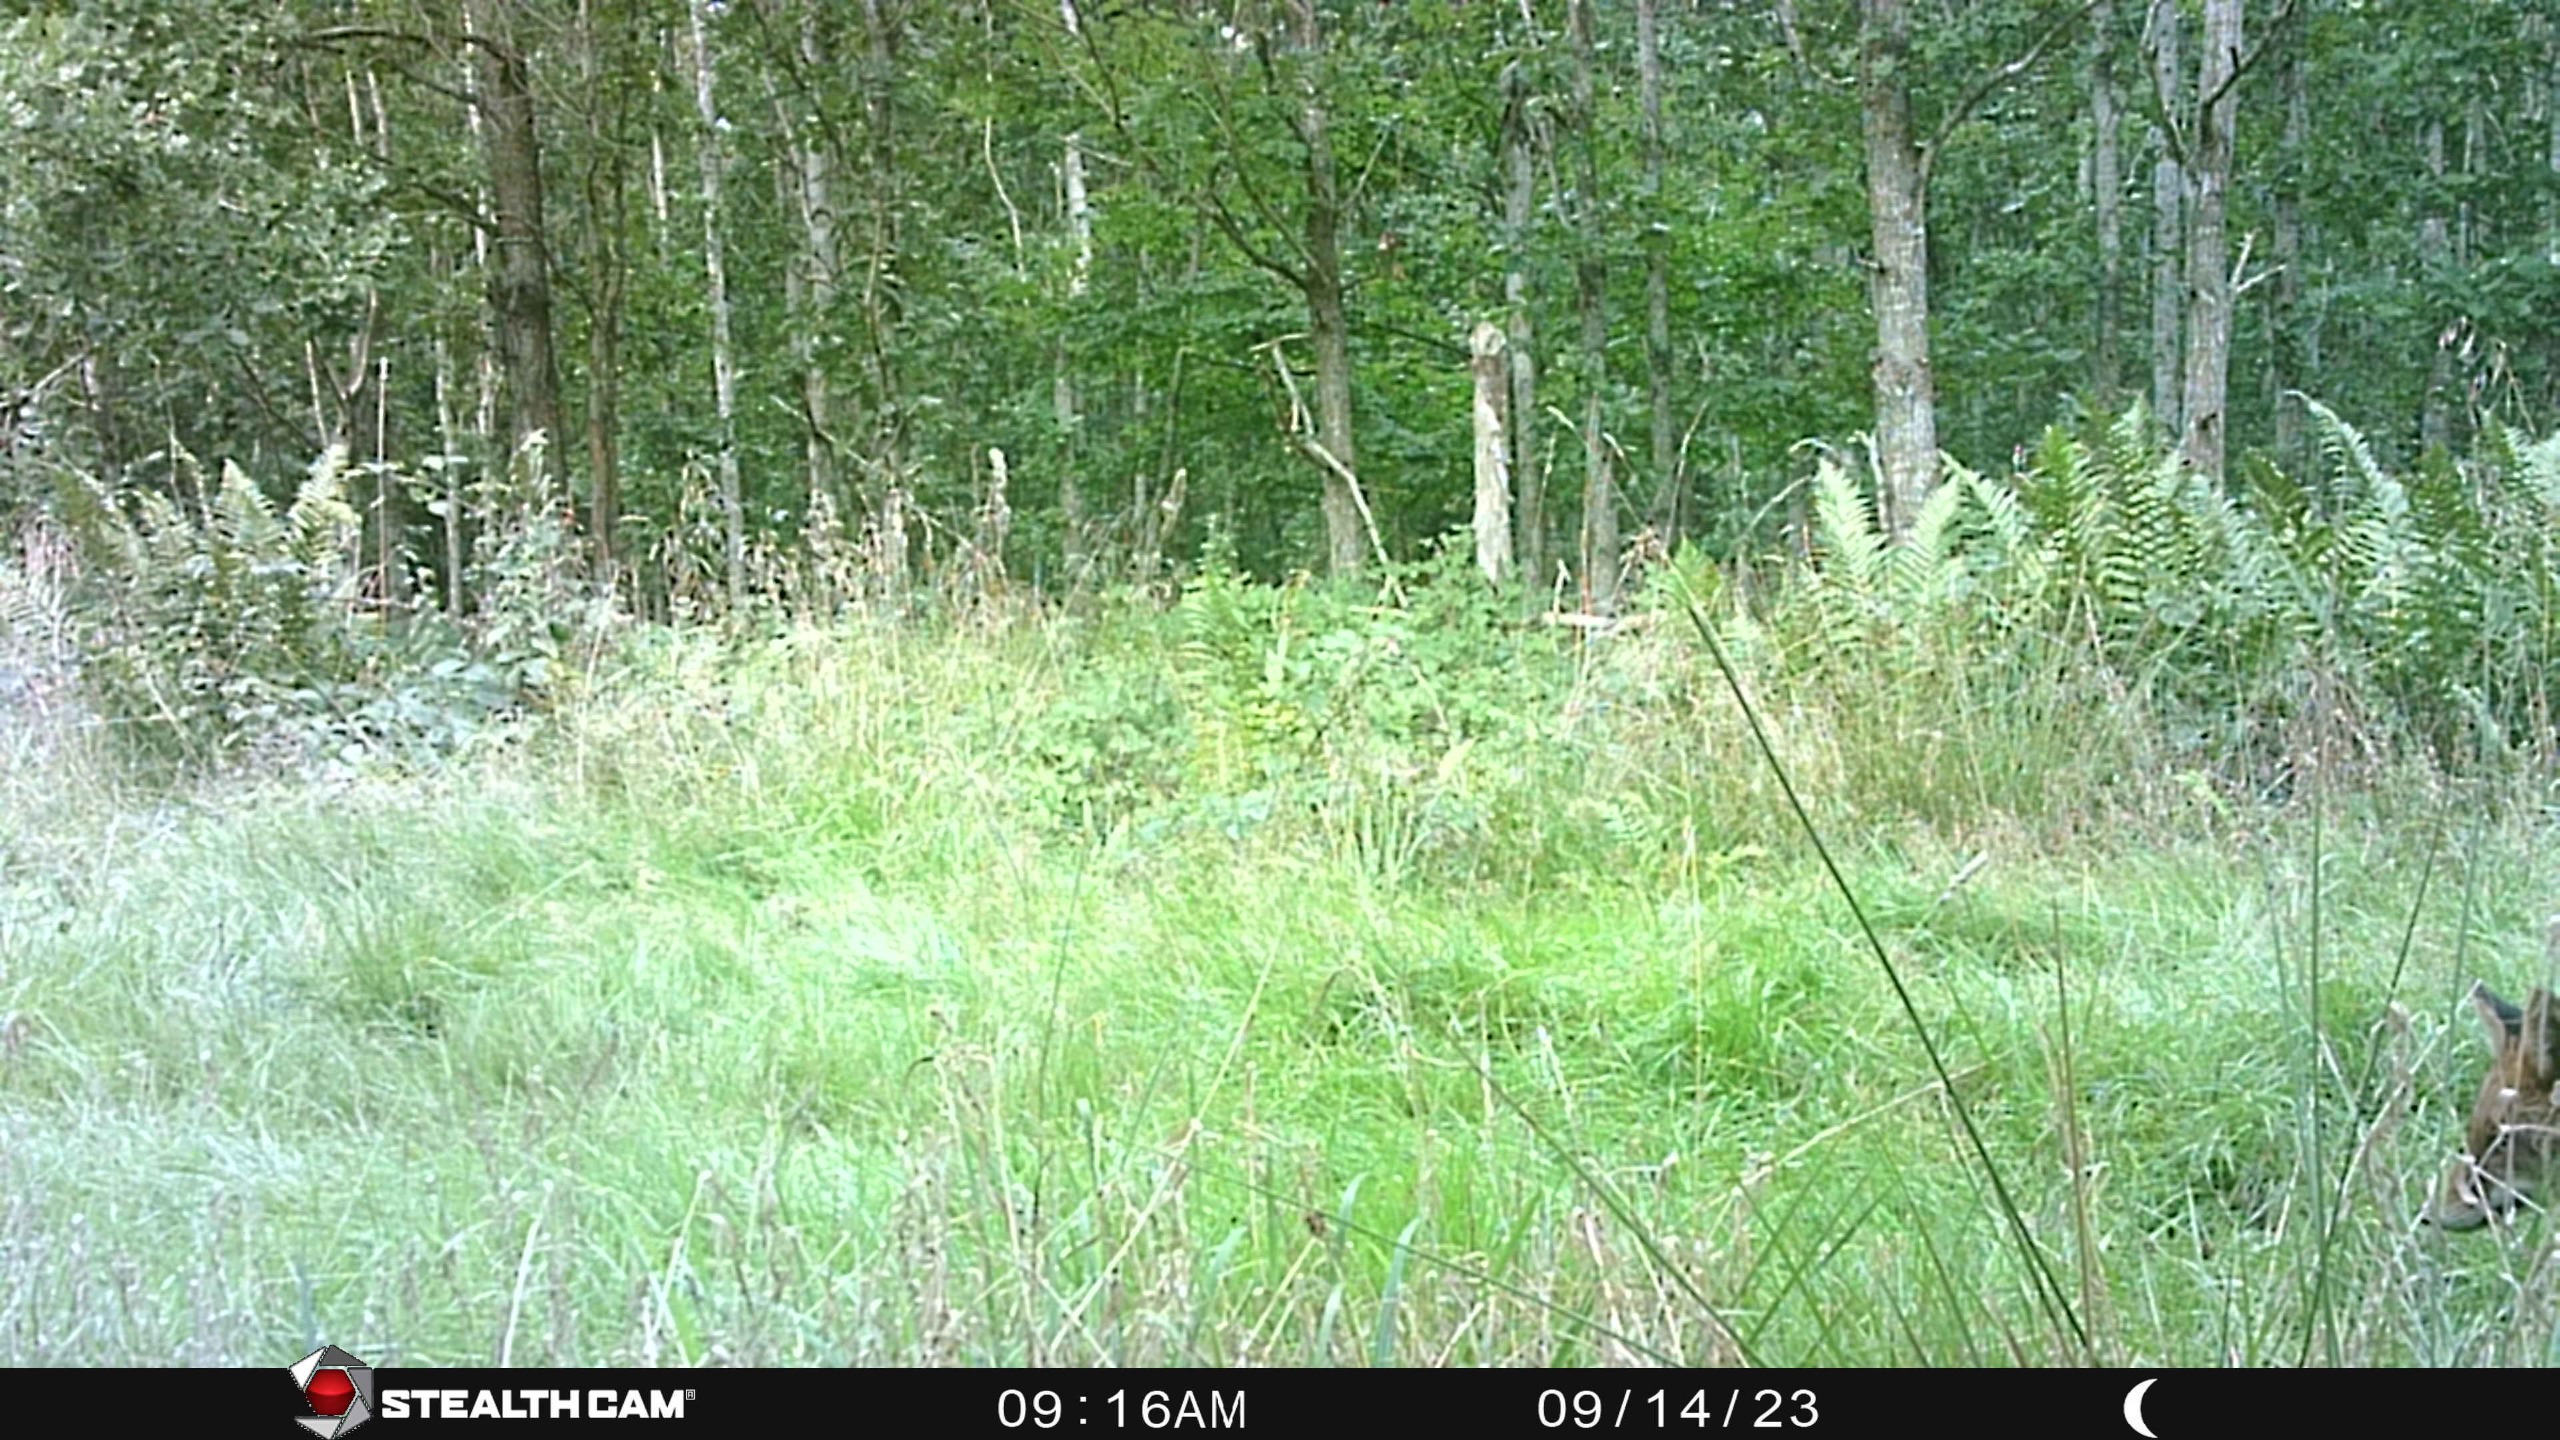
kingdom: Animalia
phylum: Chordata
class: Mammalia
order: Carnivora
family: Canidae
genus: Vulpes
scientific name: Vulpes vulpes
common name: Ræv
